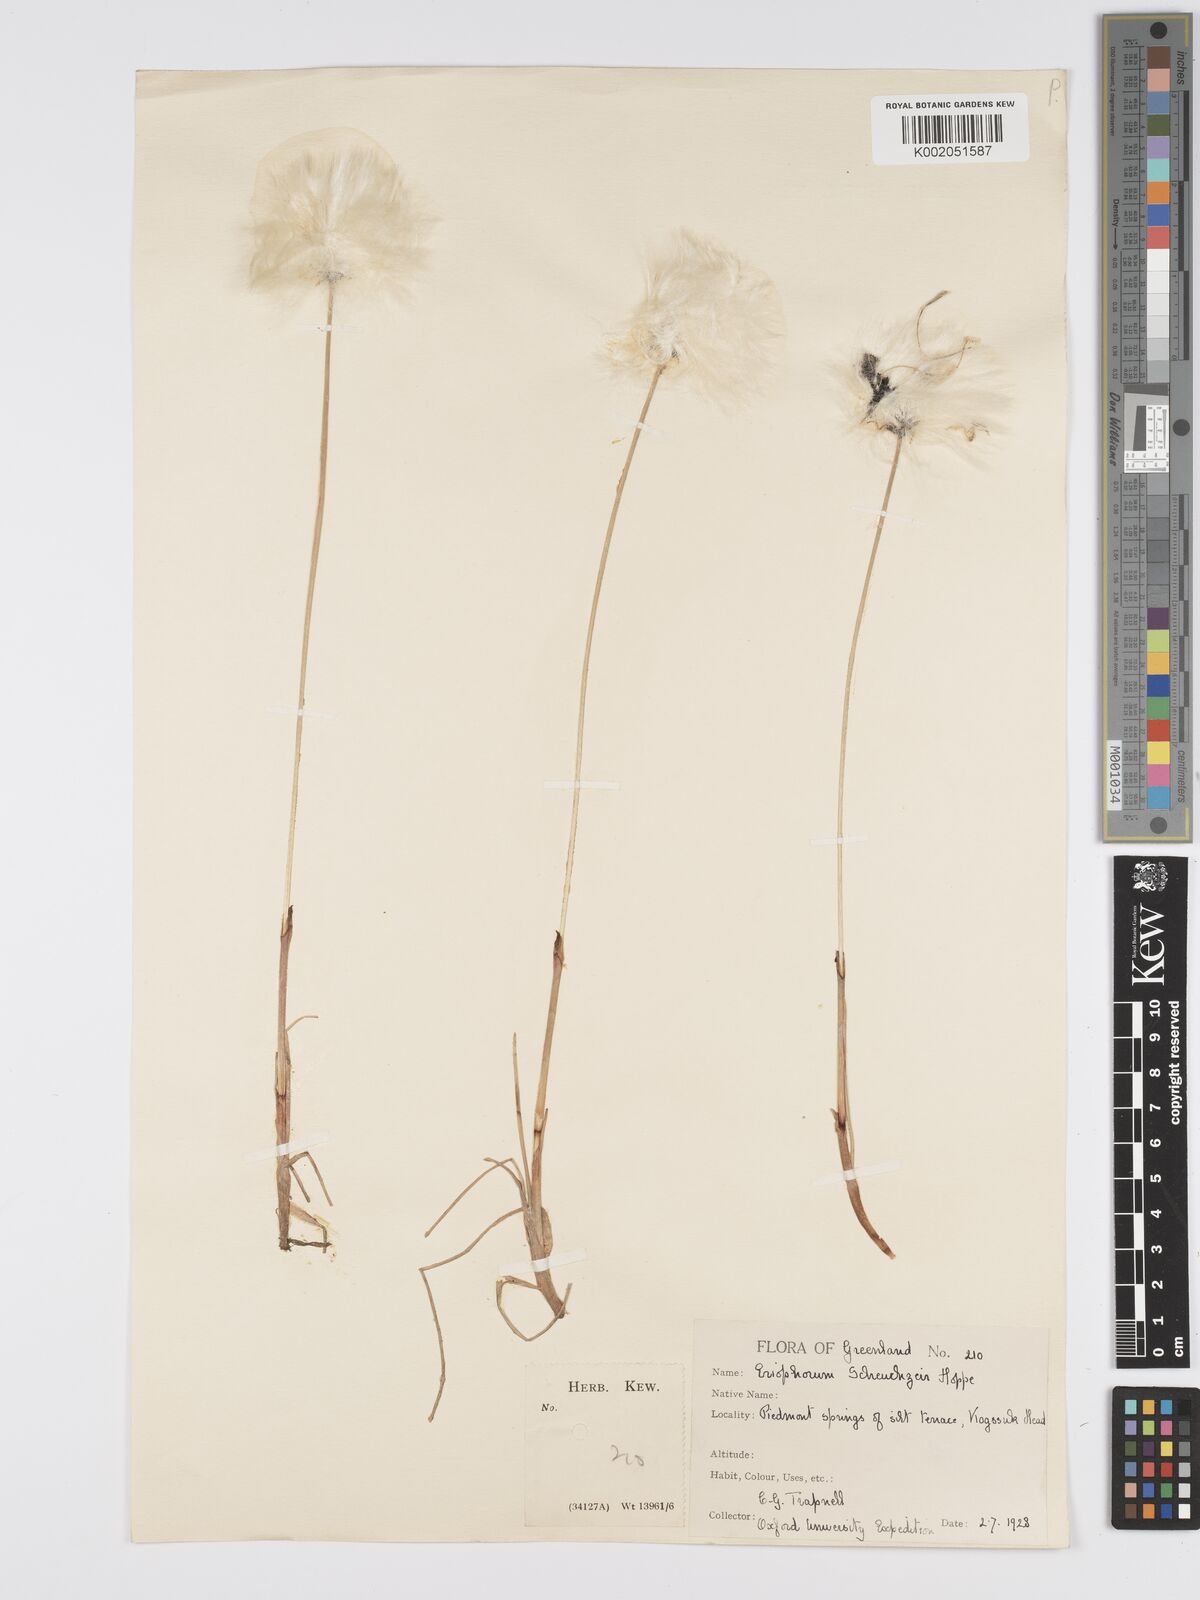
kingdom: Plantae
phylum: Tracheophyta
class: Liliopsida
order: Poales
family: Cyperaceae
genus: Eriophorum
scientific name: Eriophorum scheuchzeri
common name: Scheuchzer's cottongrass
